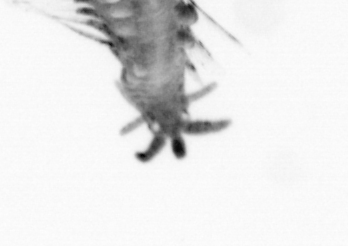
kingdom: Animalia
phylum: Annelida
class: Polychaeta
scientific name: Polychaeta
